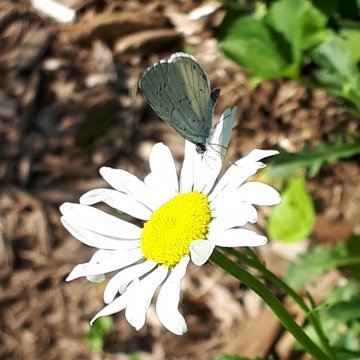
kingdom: Animalia
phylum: Arthropoda
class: Insecta
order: Lepidoptera
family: Lycaenidae
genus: Cyaniris
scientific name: Cyaniris neglecta
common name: Summer Azure
